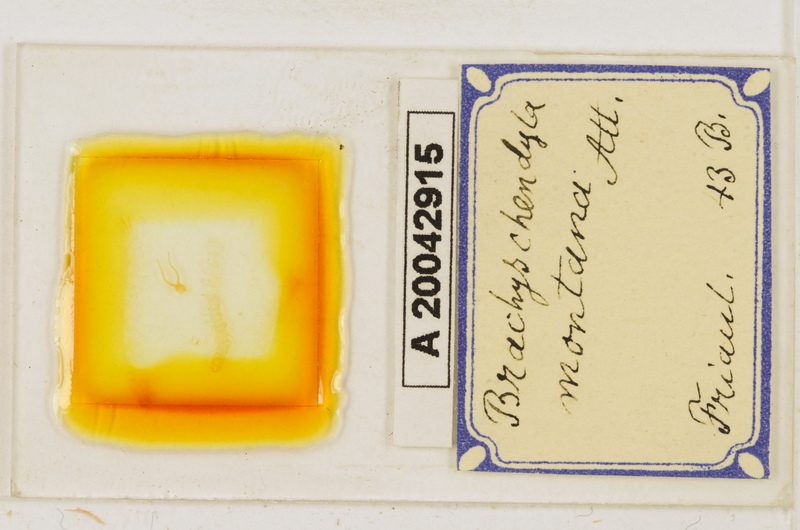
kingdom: Animalia
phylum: Arthropoda
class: Chilopoda
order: Geophilomorpha
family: Schendylidae
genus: Schendyla
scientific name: Schendyla
